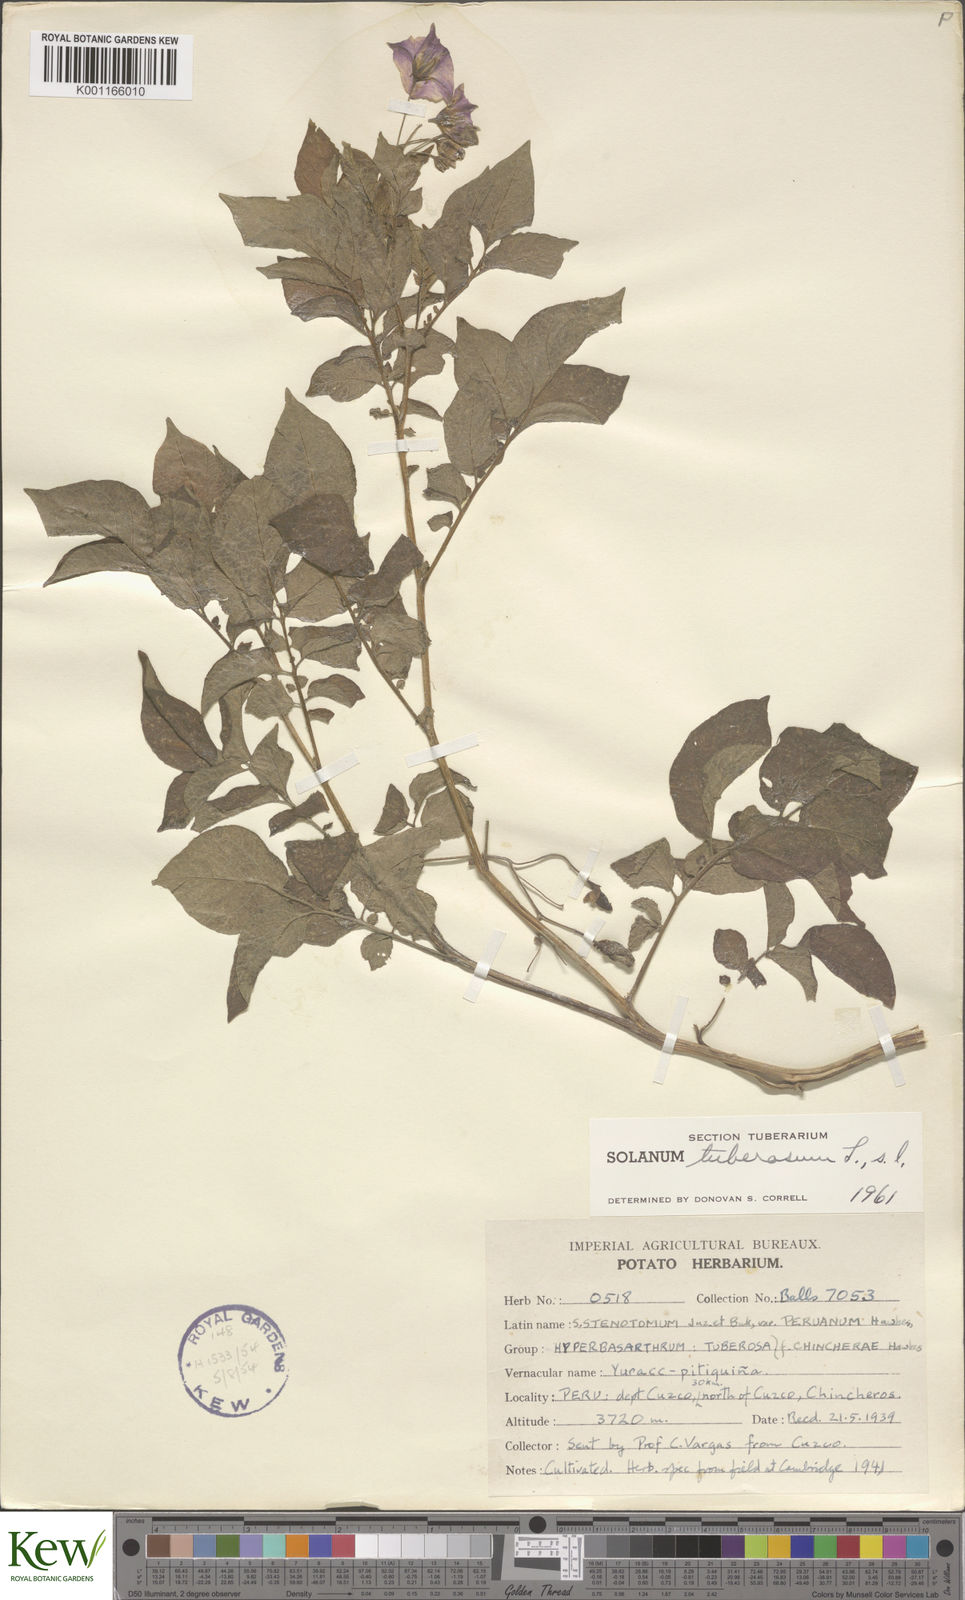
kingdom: Plantae
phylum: Tracheophyta
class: Magnoliopsida
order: Solanales
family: Solanaceae
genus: Solanum
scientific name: Solanum tuberosum
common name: Potato
